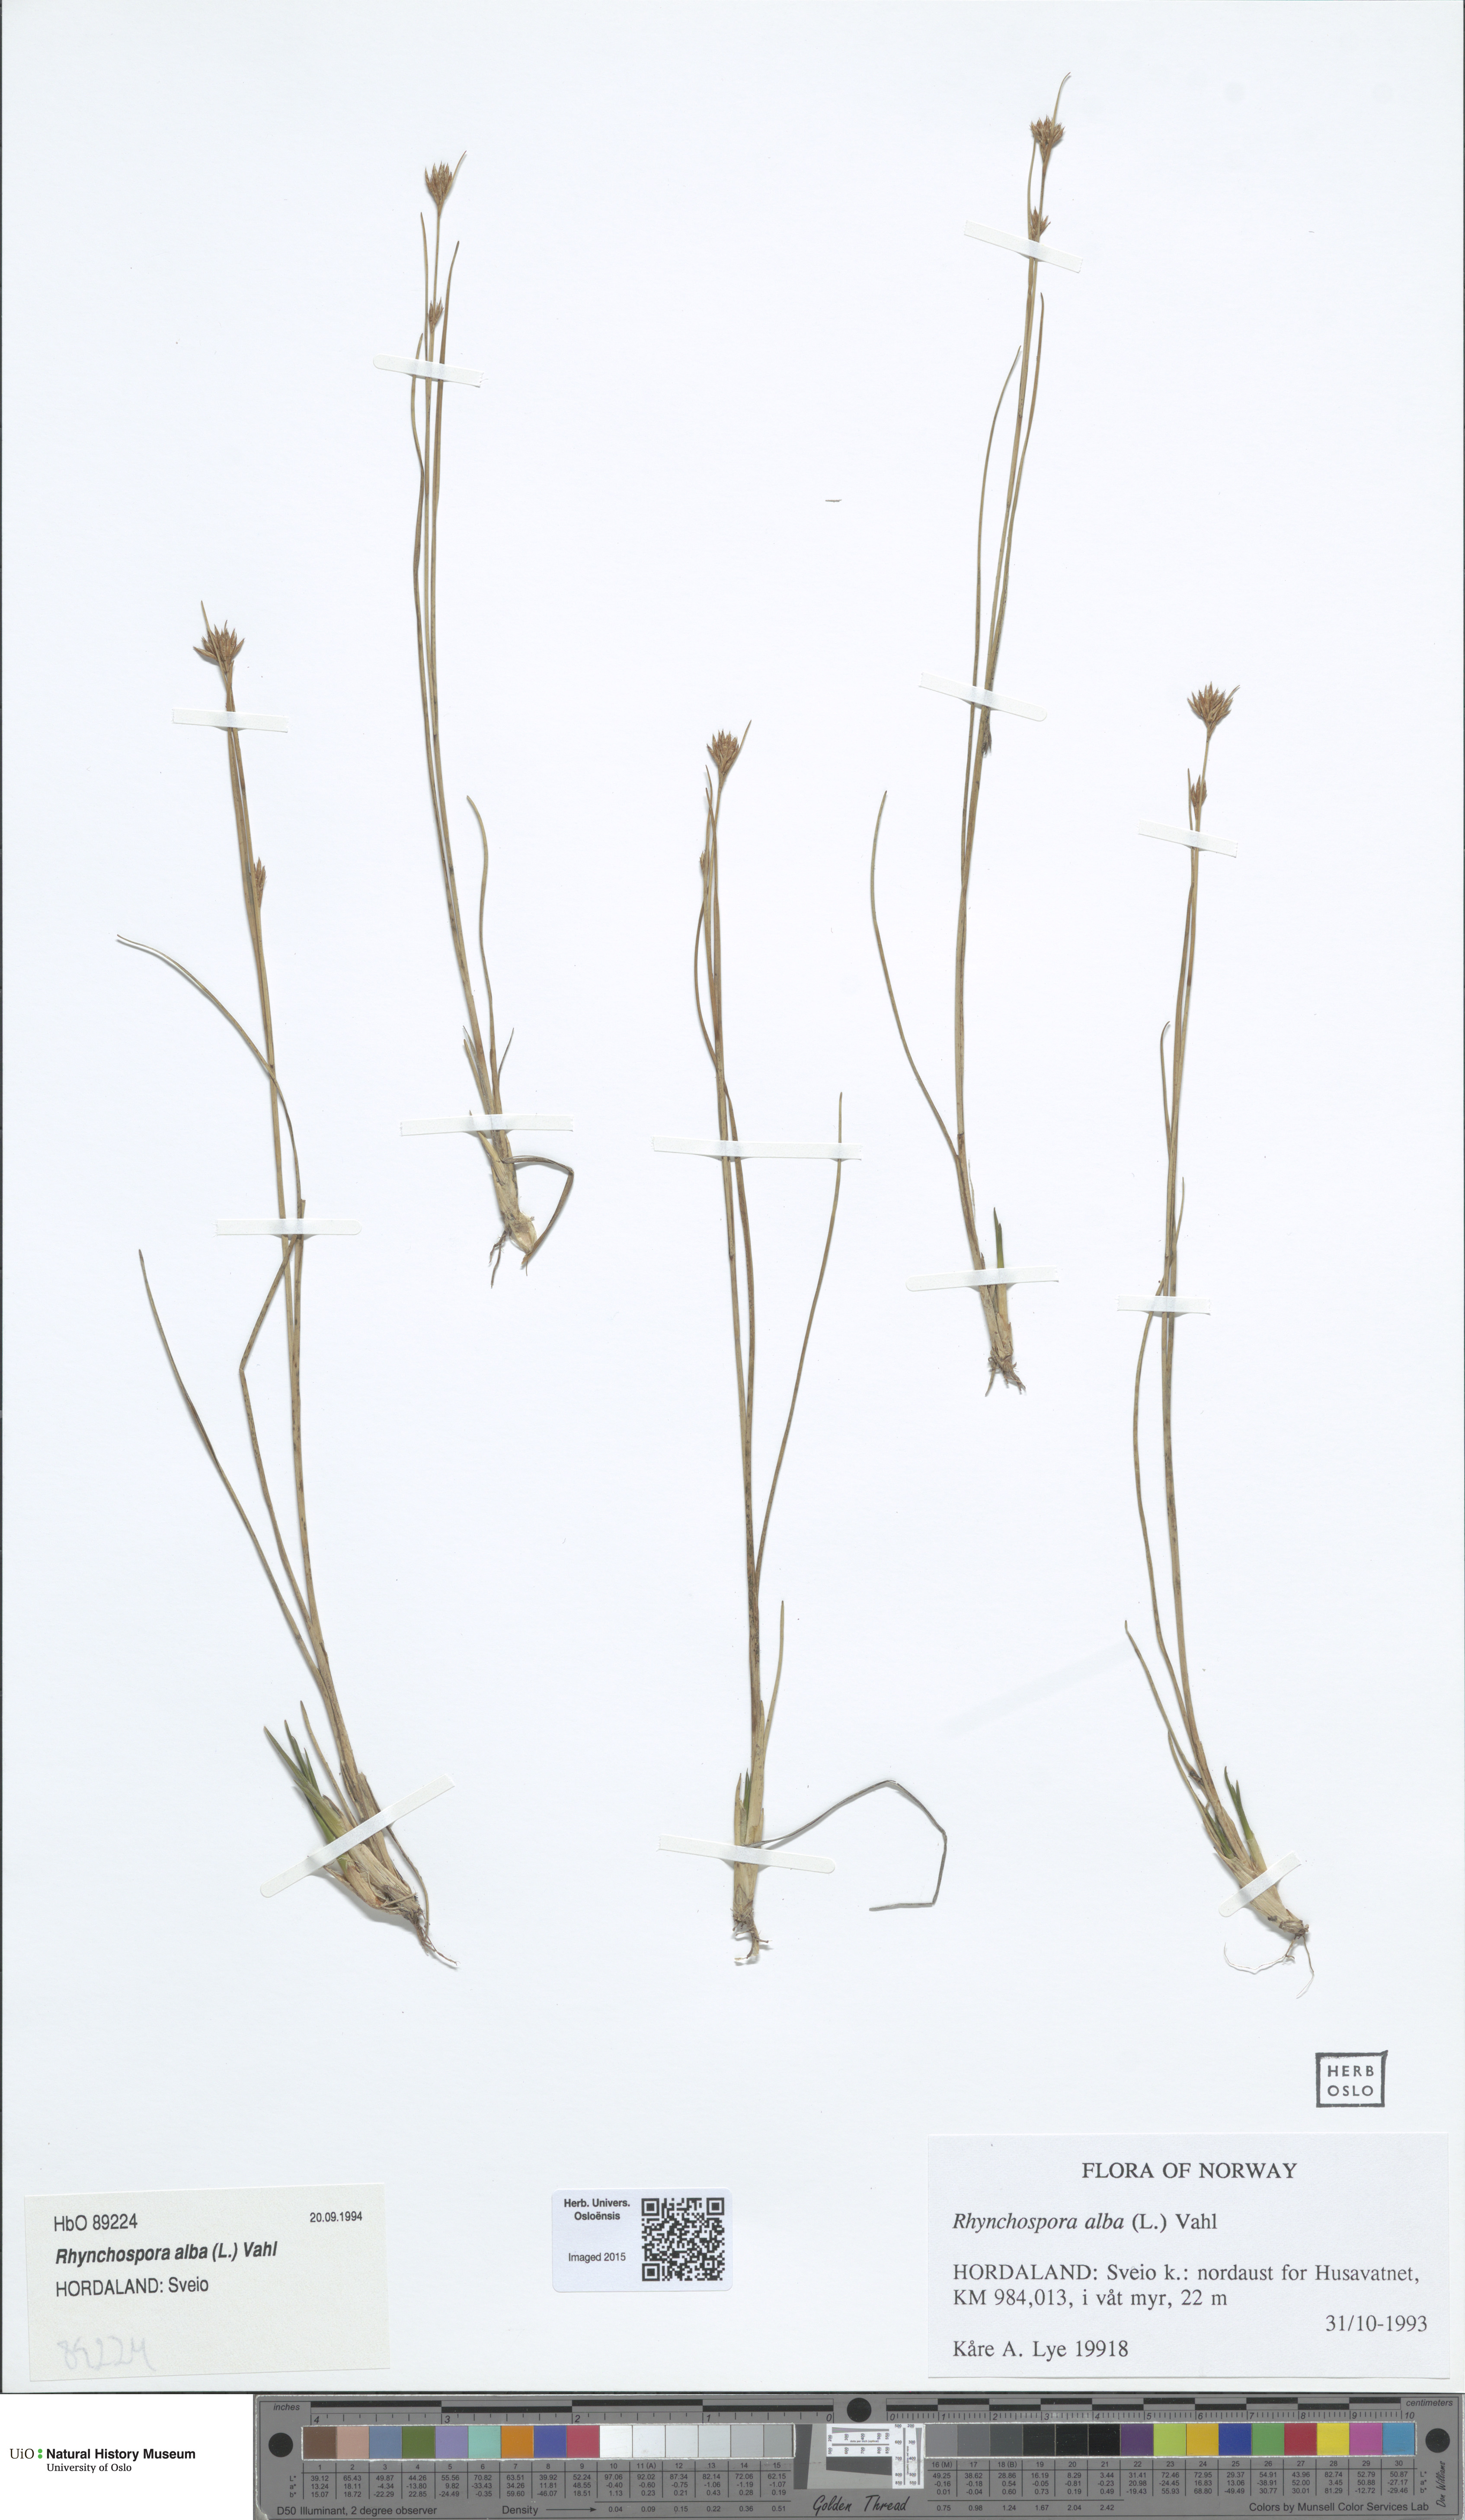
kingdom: Plantae
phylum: Tracheophyta
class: Liliopsida
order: Poales
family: Cyperaceae
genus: Rhynchospora
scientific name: Rhynchospora alba
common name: White beak-sedge
